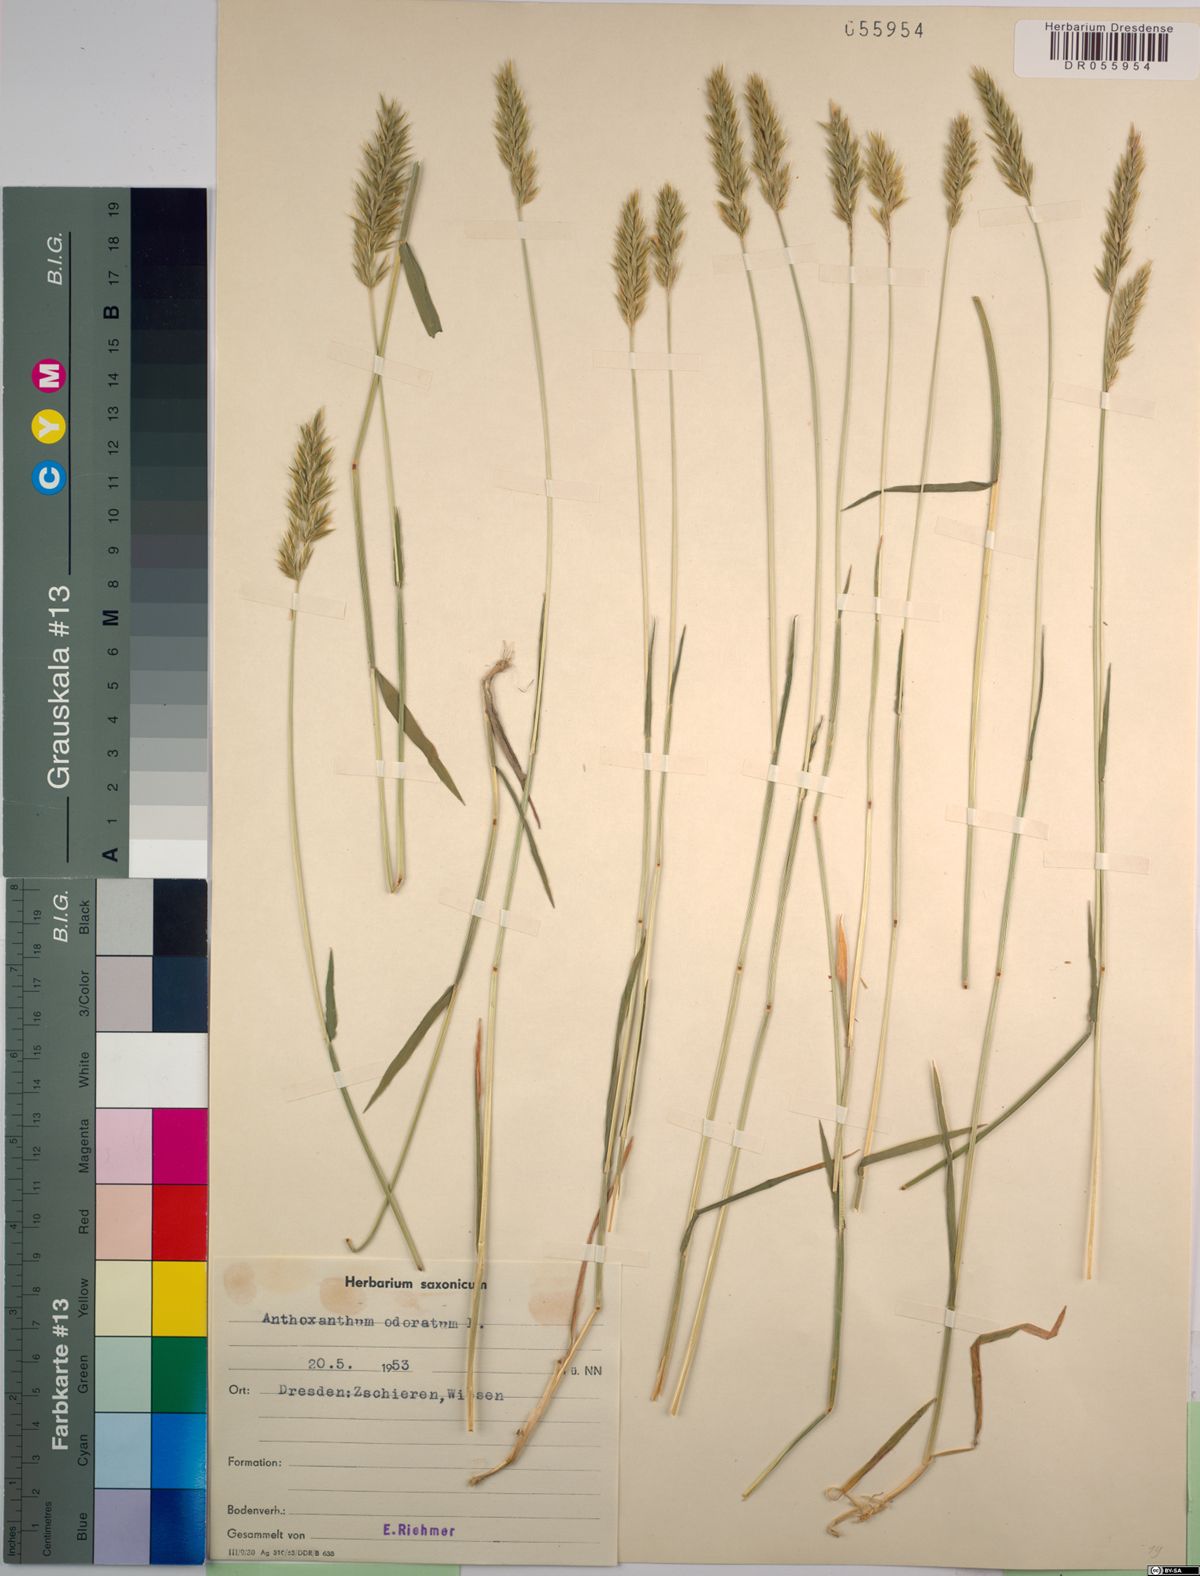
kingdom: Plantae
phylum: Tracheophyta
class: Liliopsida
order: Poales
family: Poaceae
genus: Anthoxanthum
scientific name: Anthoxanthum odoratum
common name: Sweet vernalgrass
